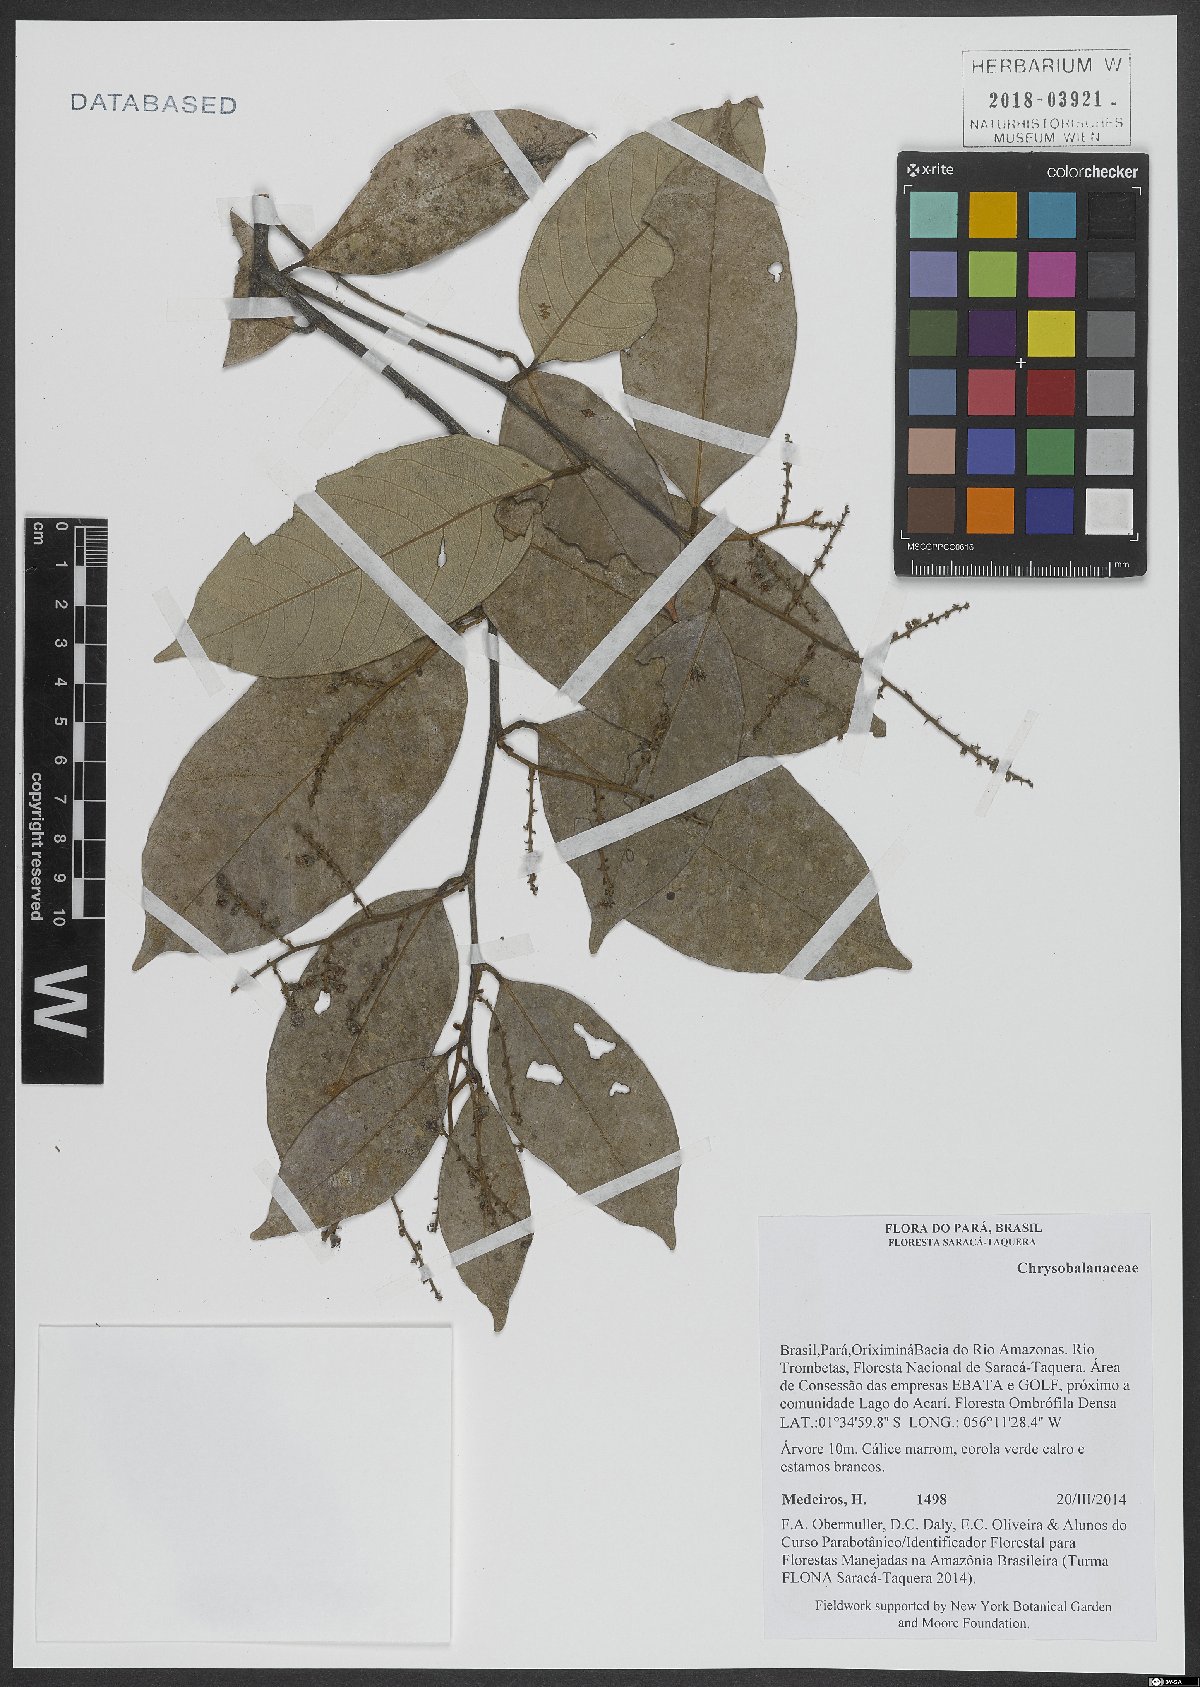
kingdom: Plantae
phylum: Tracheophyta
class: Magnoliopsida
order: Malpighiales
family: Chrysobalanaceae
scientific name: Chrysobalanaceae
